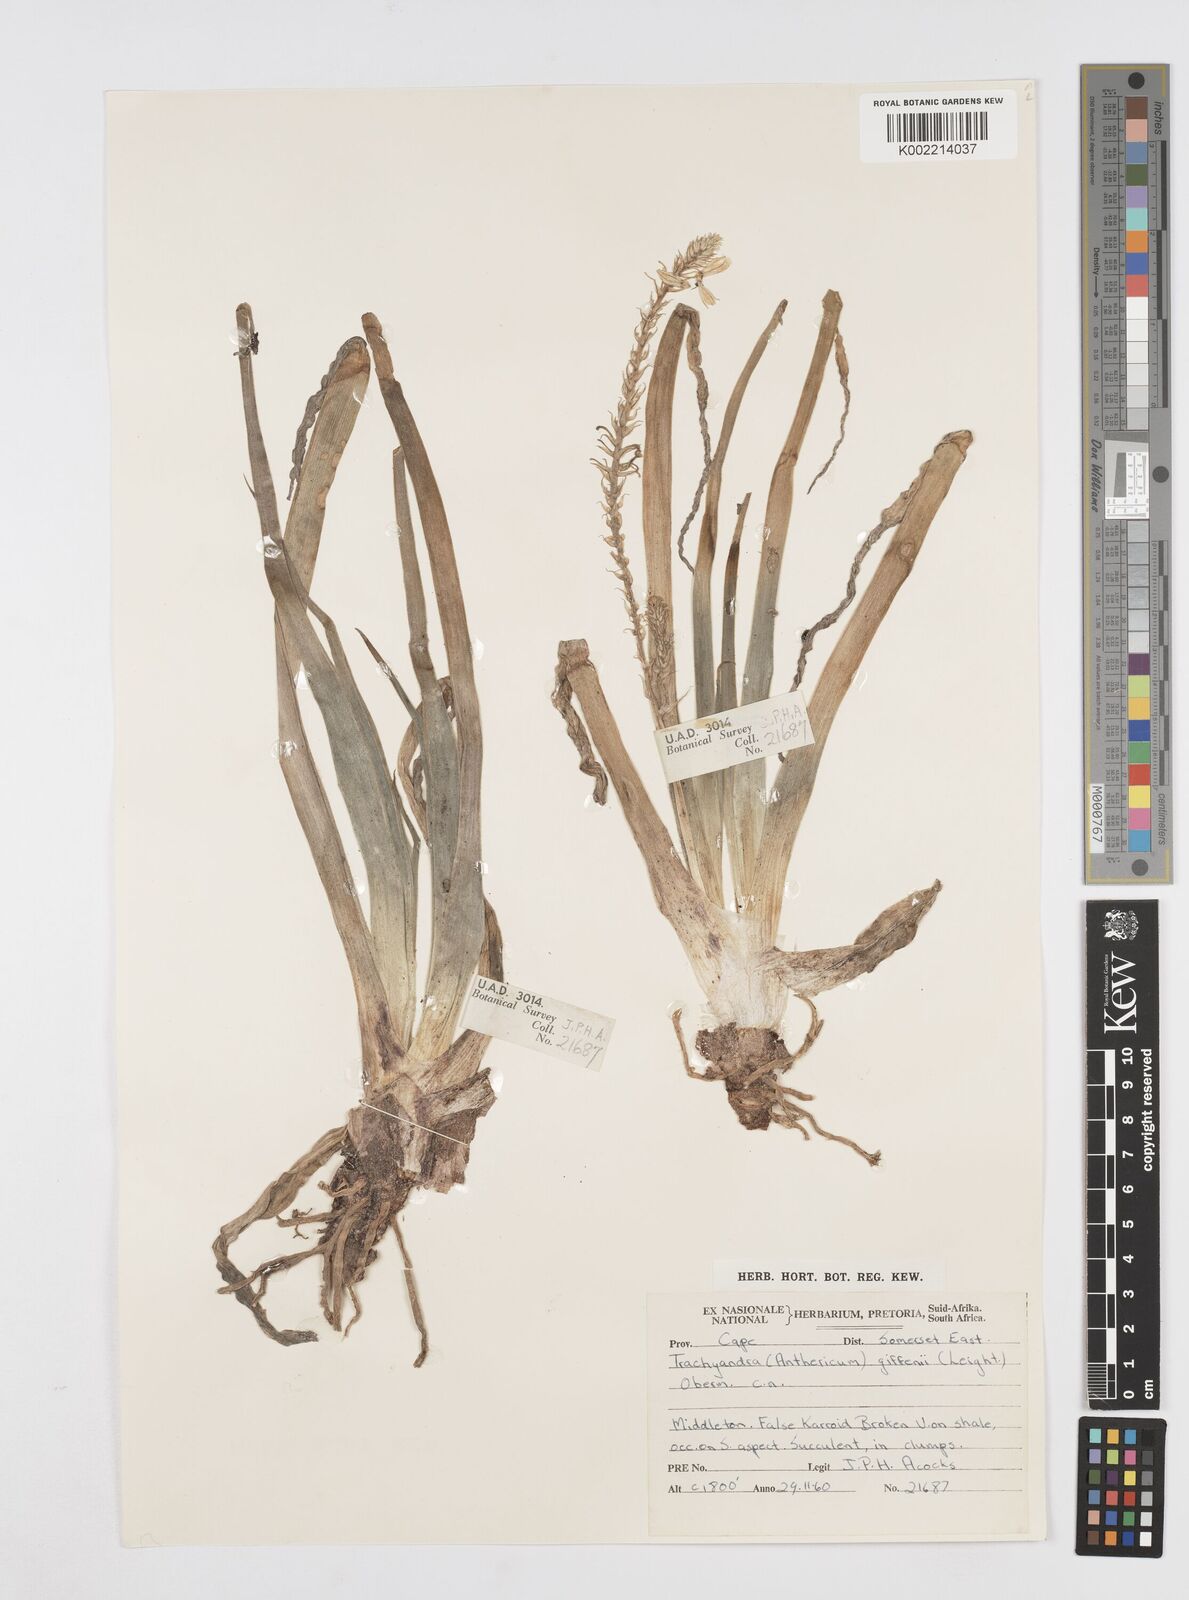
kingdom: Plantae
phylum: Tracheophyta
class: Liliopsida
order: Asparagales
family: Asphodelaceae
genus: Trachyandra
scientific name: Trachyandra giffenii
